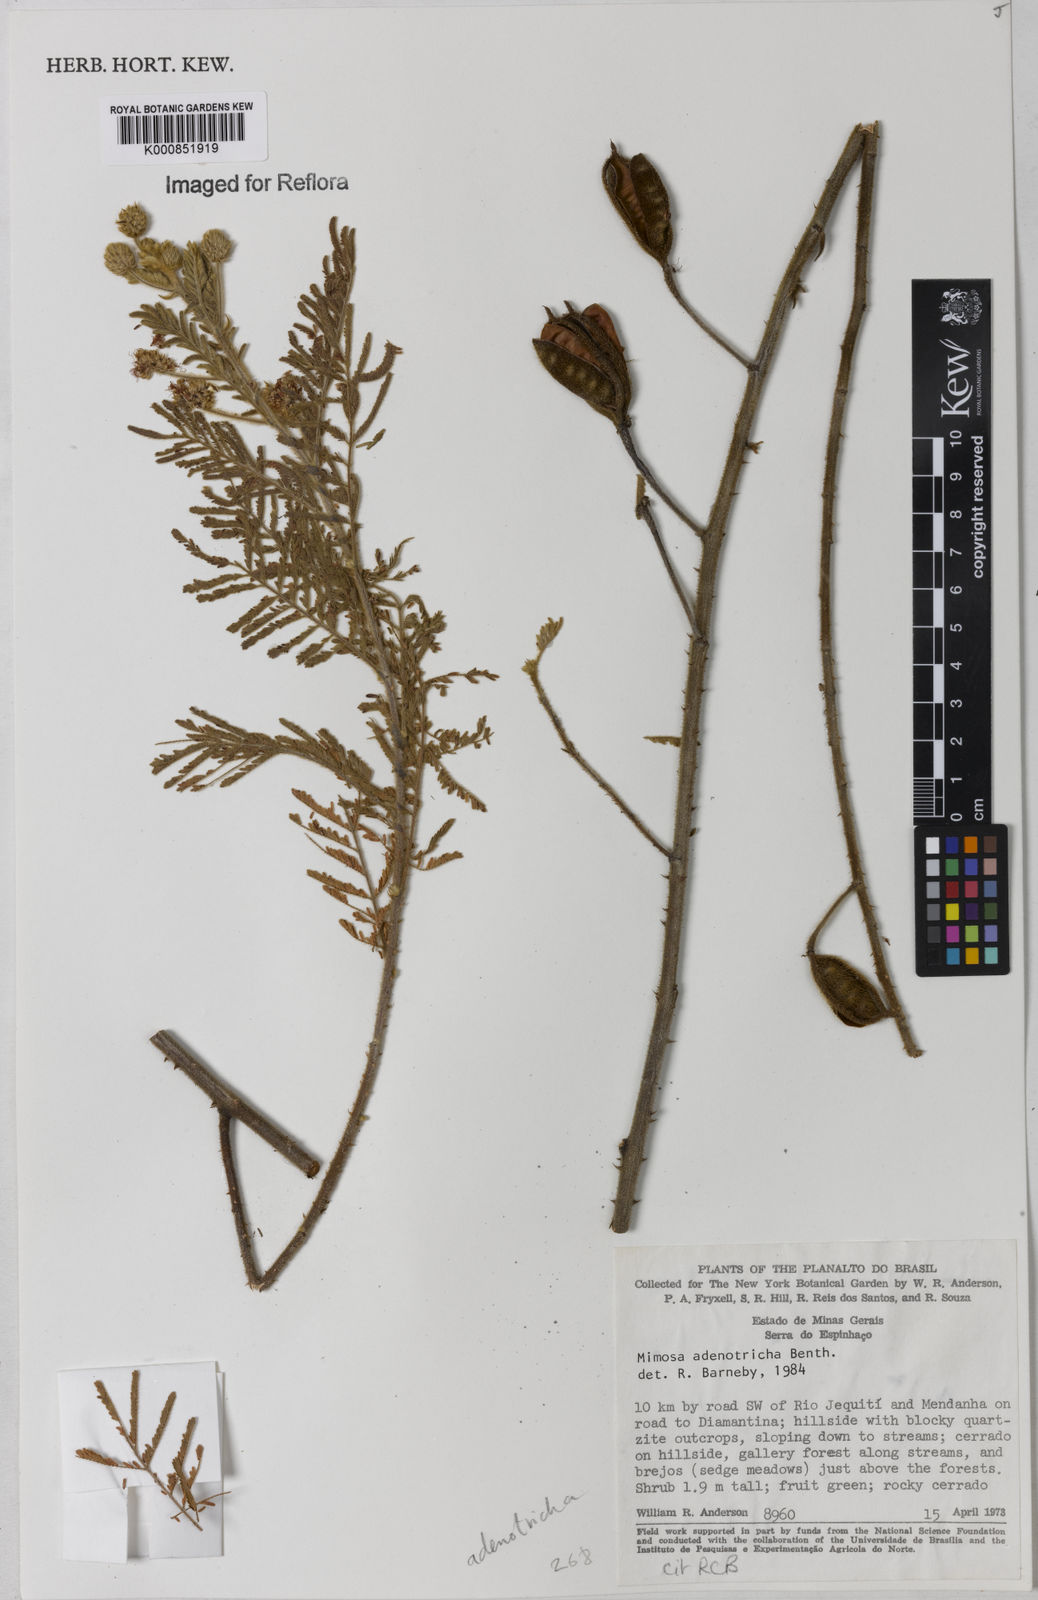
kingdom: Plantae
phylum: Tracheophyta
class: Magnoliopsida
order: Fabales
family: Fabaceae
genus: Mimosa
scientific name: Mimosa adenotricha
